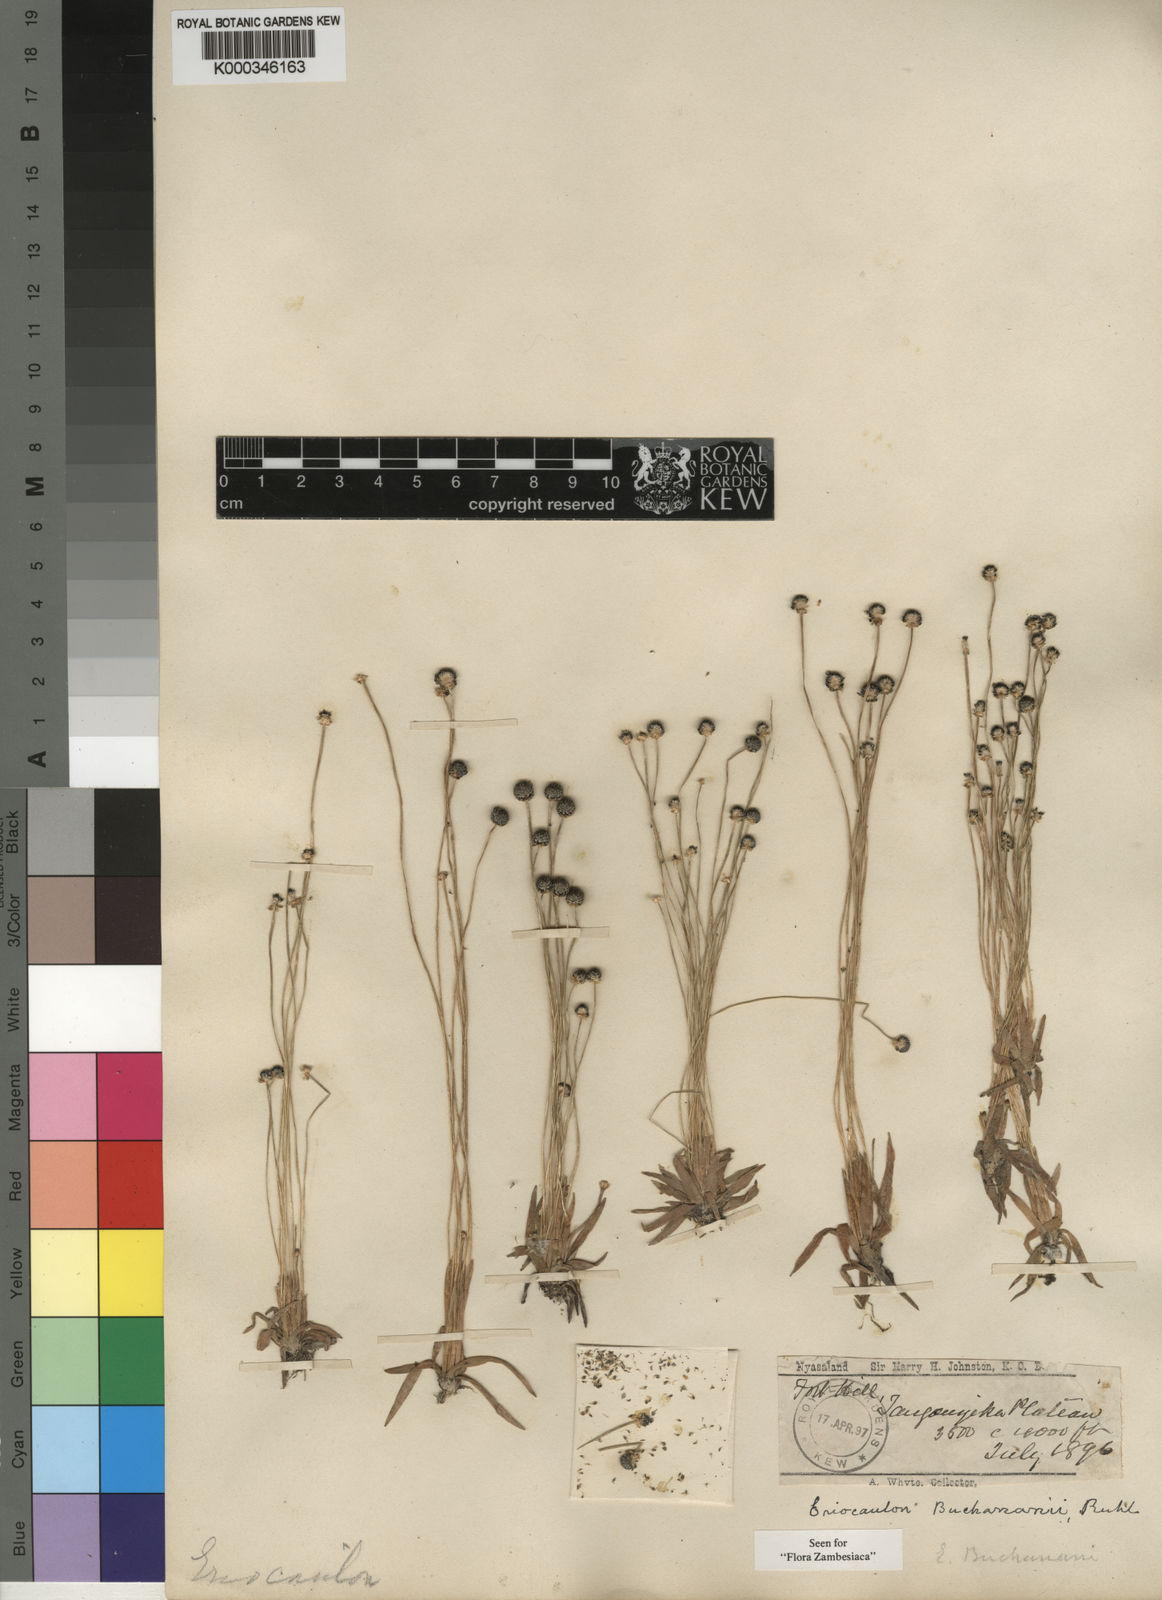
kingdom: Plantae
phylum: Tracheophyta
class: Liliopsida
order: Poales
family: Eriocaulaceae
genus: Eriocaulon
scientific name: Eriocaulon buchananii
